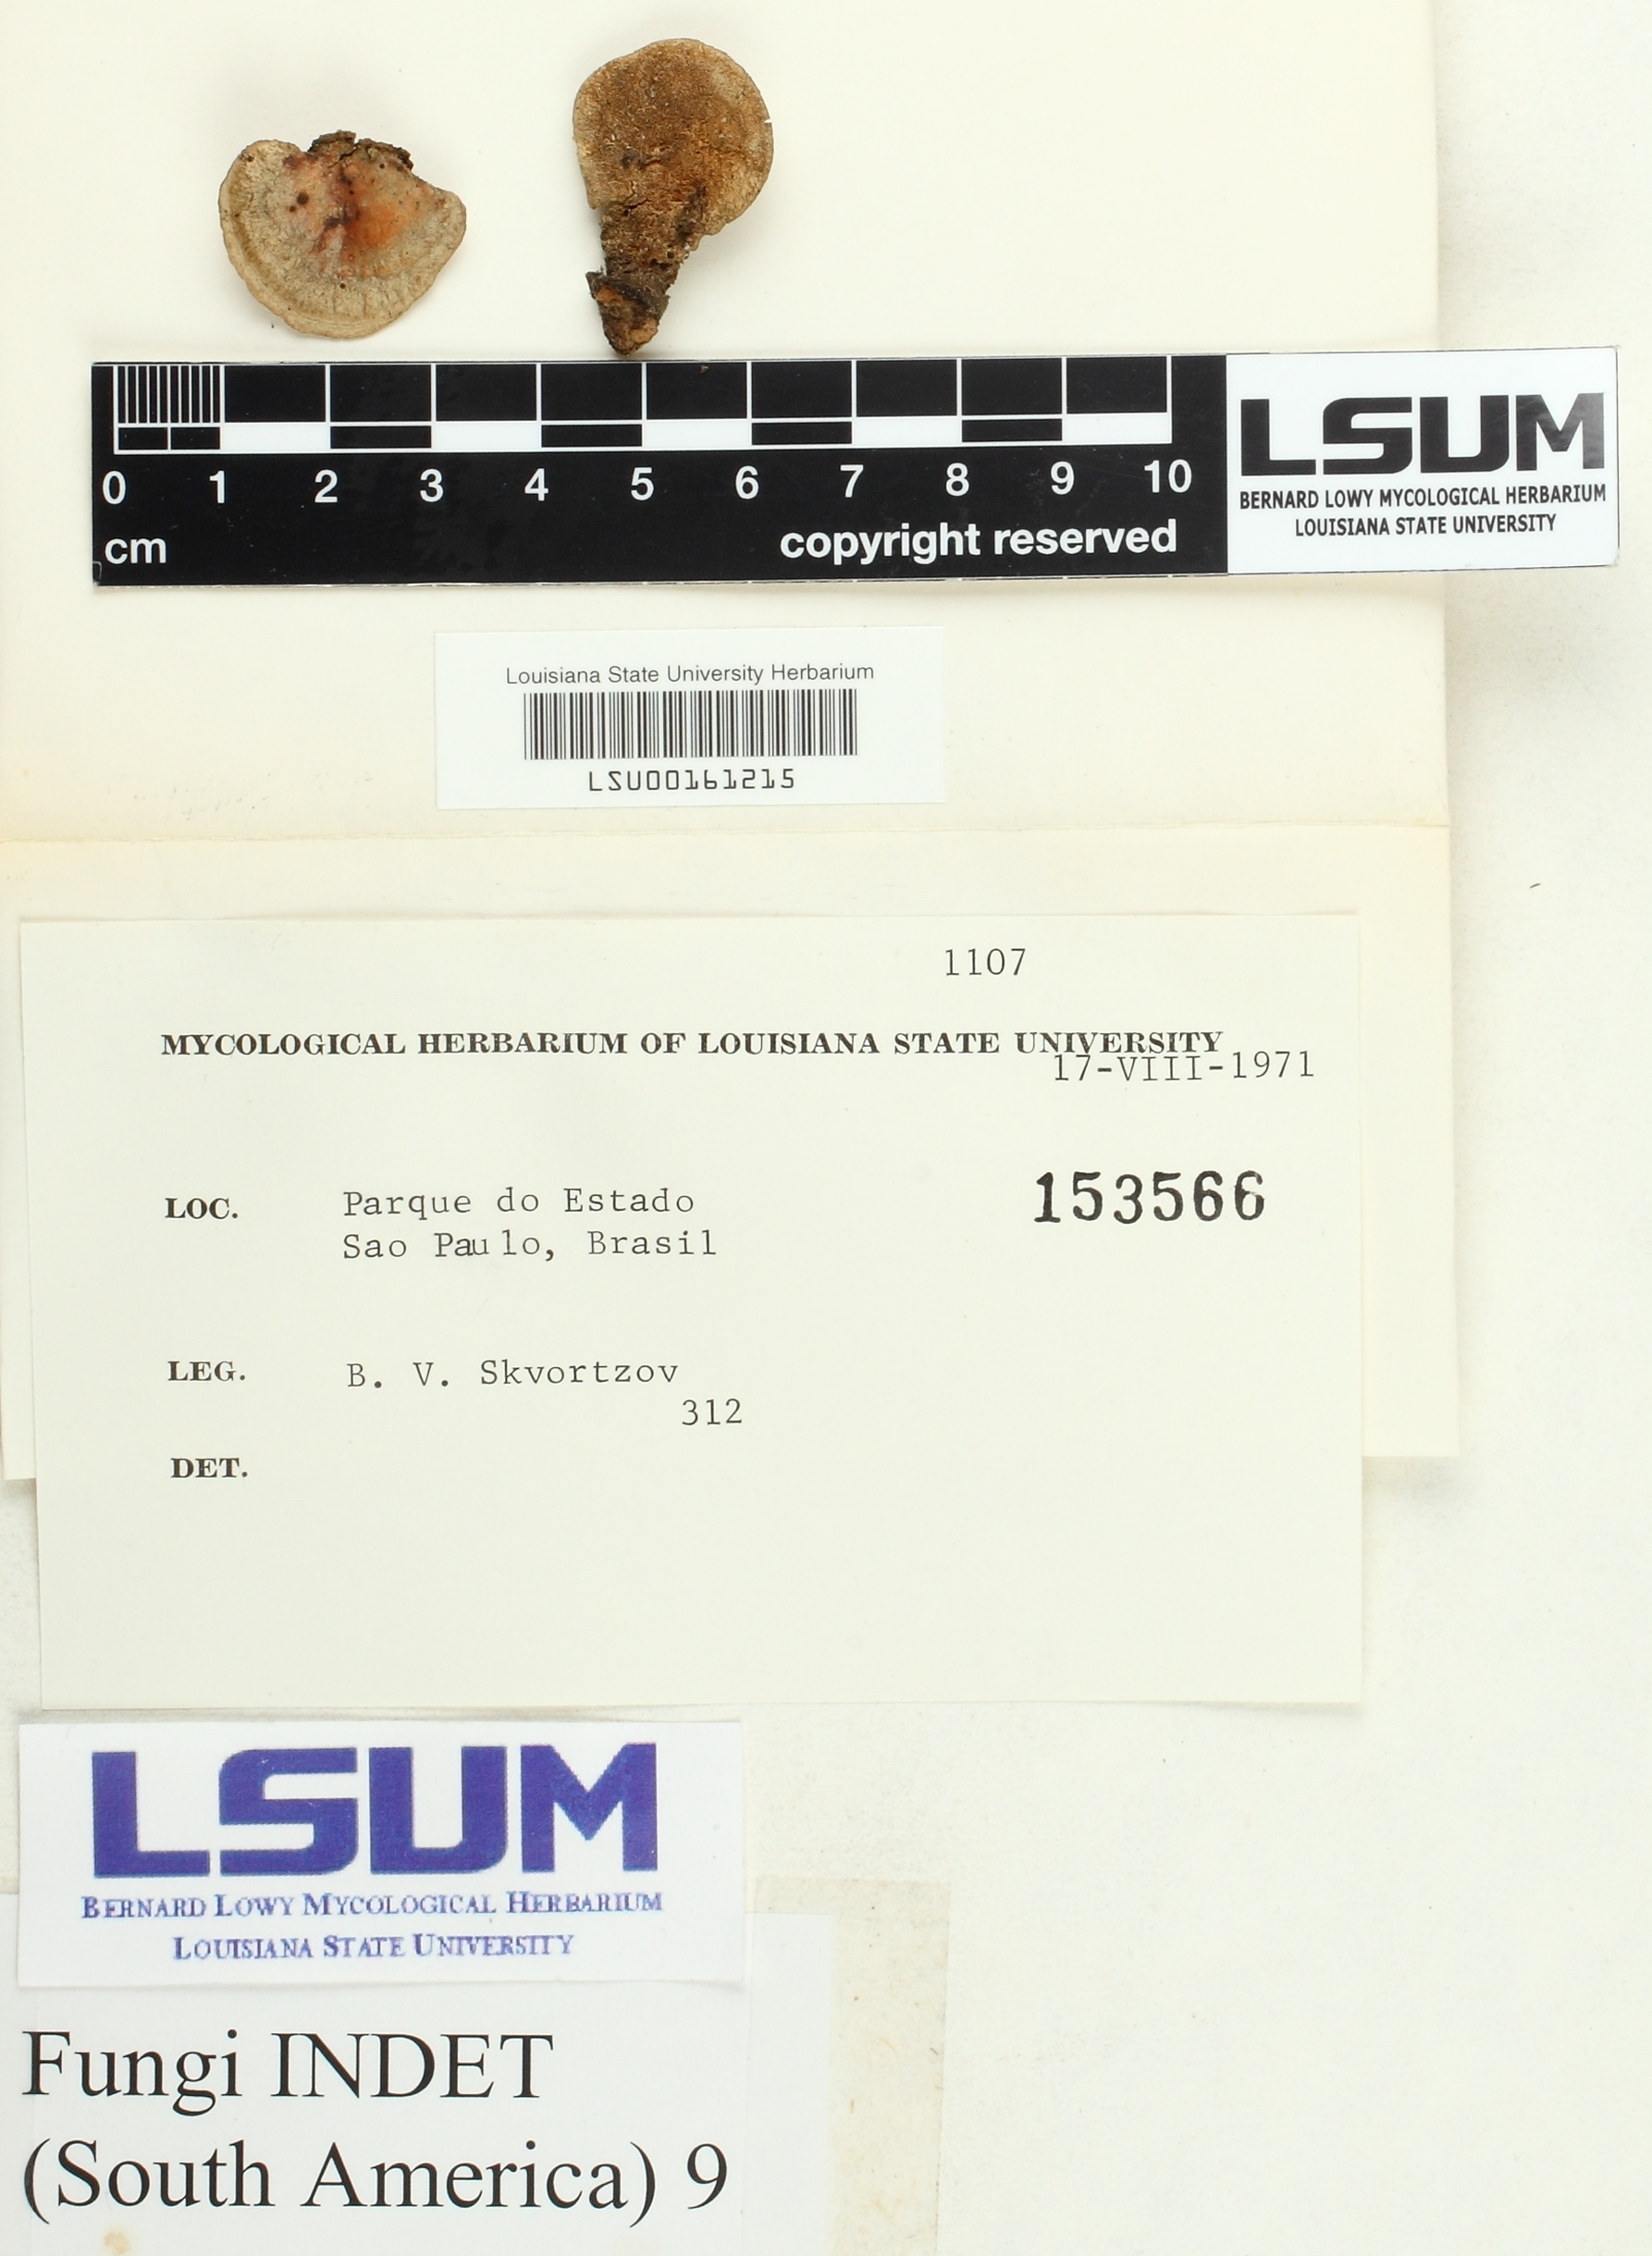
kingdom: Fungi
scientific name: Fungi
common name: Fungi
